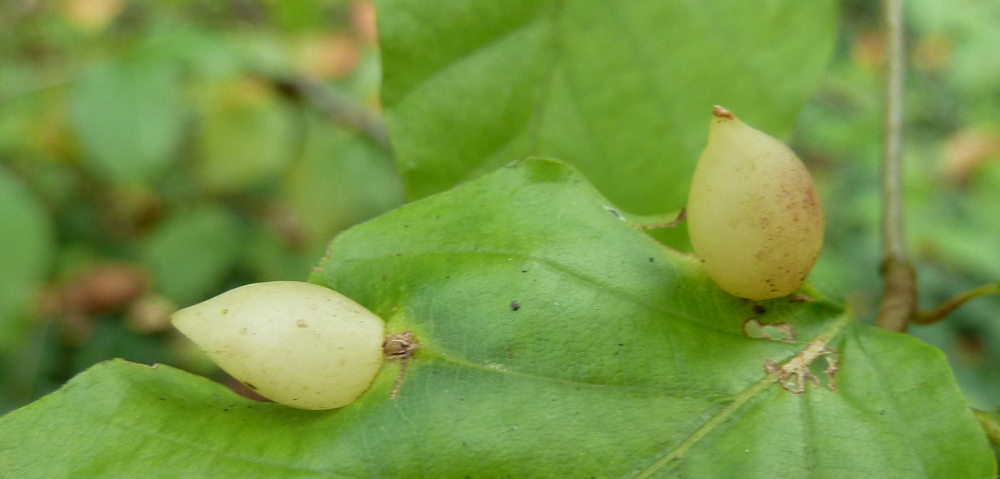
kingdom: Animalia
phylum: Arthropoda
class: Insecta
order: Diptera
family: Cecidomyiidae
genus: Mikiola
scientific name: Mikiola fagi
